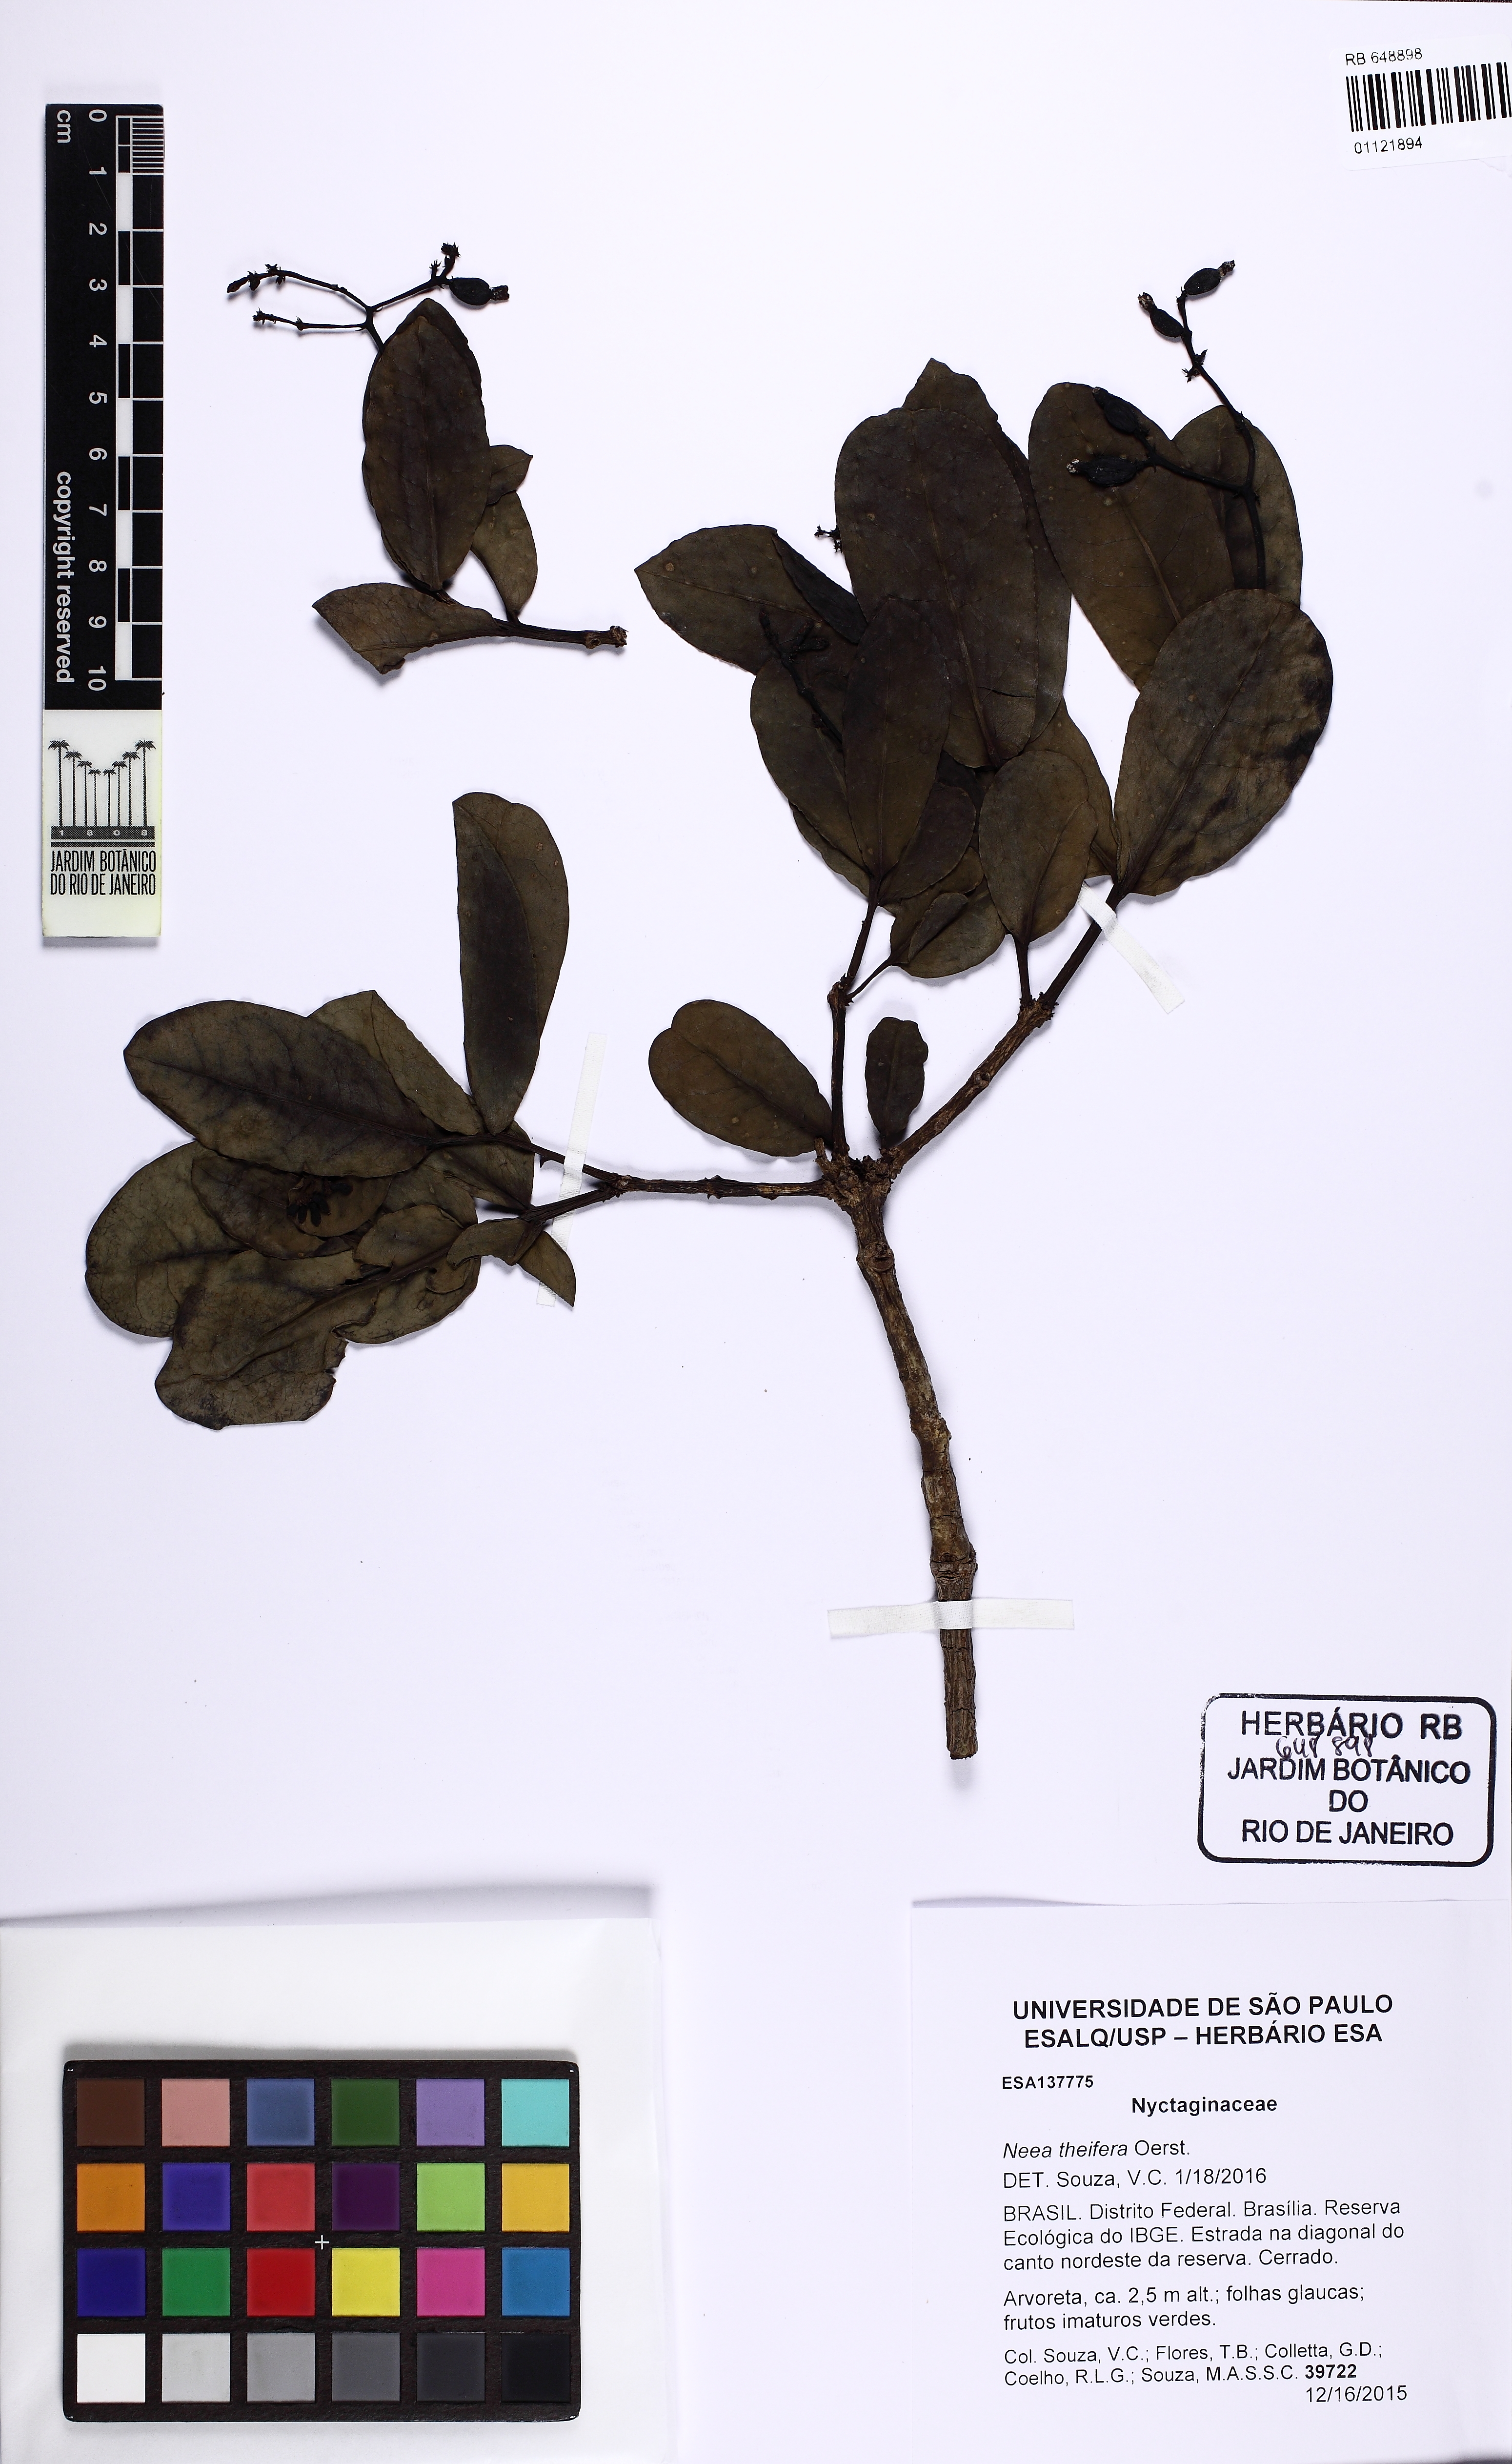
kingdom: Plantae
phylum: Tracheophyta
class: Magnoliopsida
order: Caryophyllales
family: Nyctaginaceae
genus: Neea
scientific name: Neea theifera
